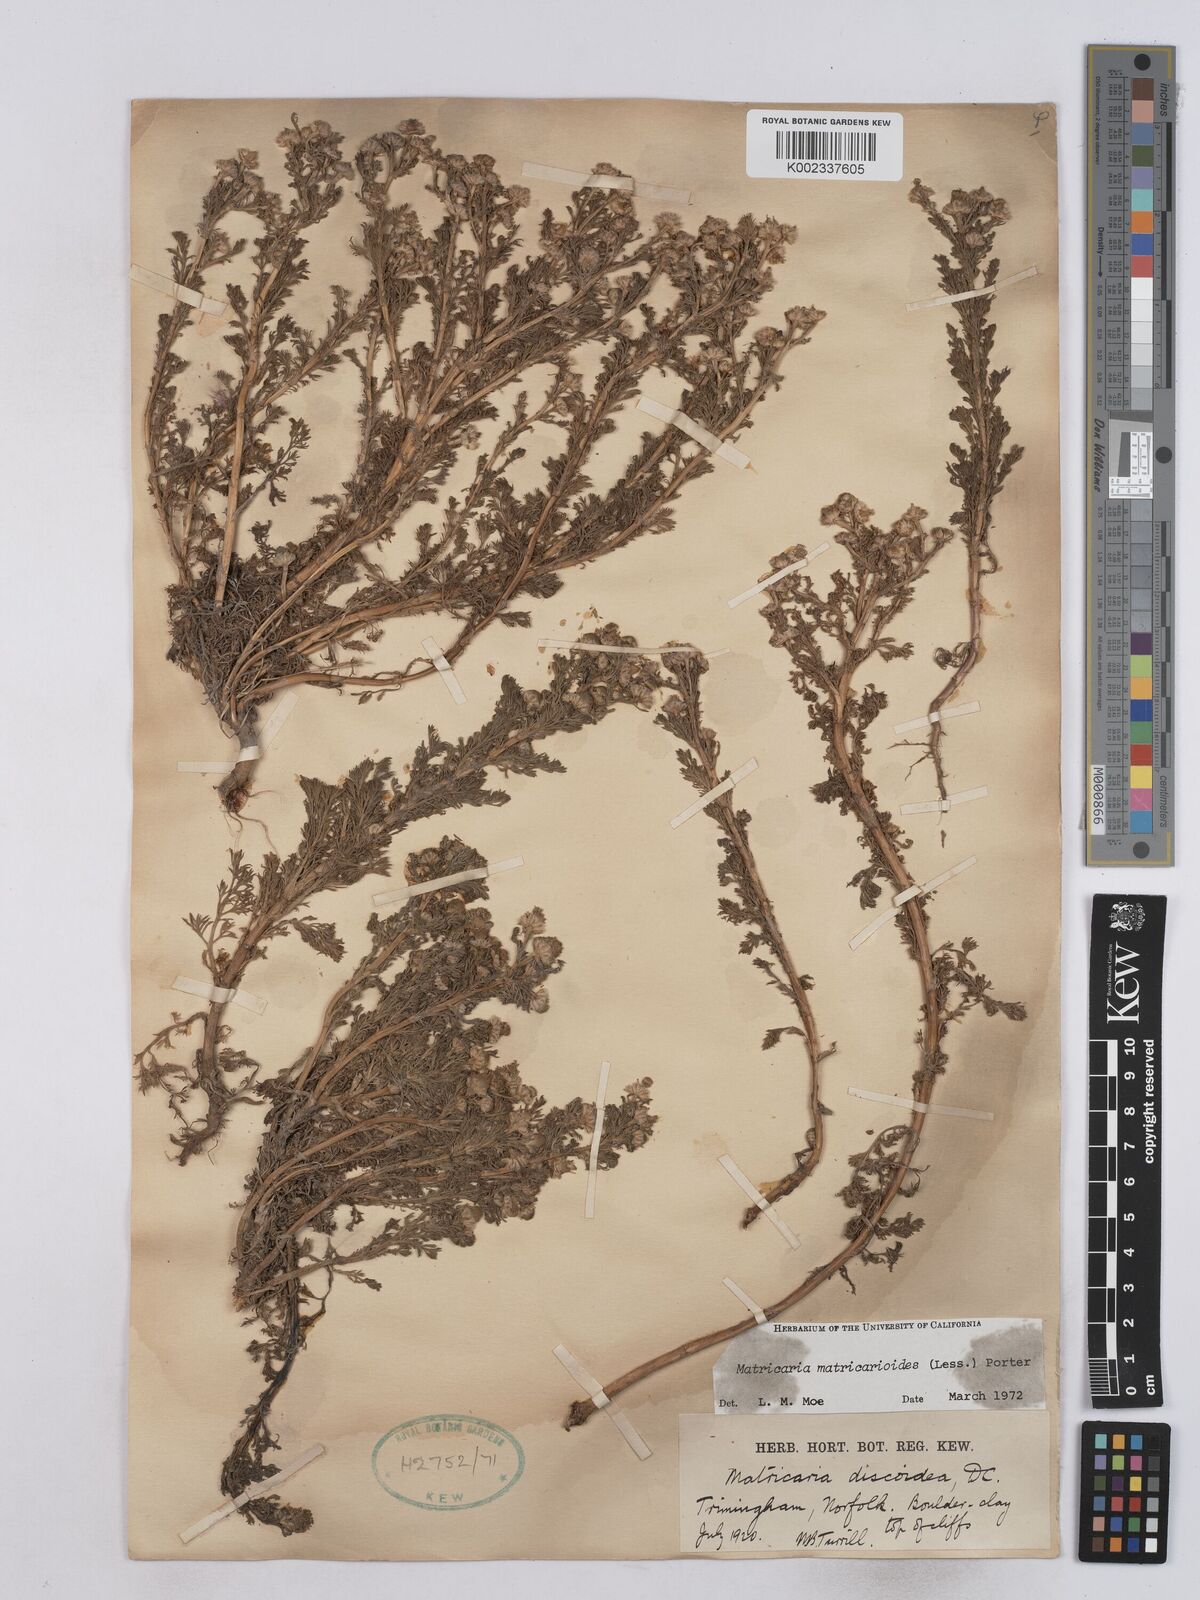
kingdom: Plantae
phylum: Tracheophyta
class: Magnoliopsida
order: Asterales
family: Asteraceae
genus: Matricaria
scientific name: Matricaria discoidea
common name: Disc mayweed
